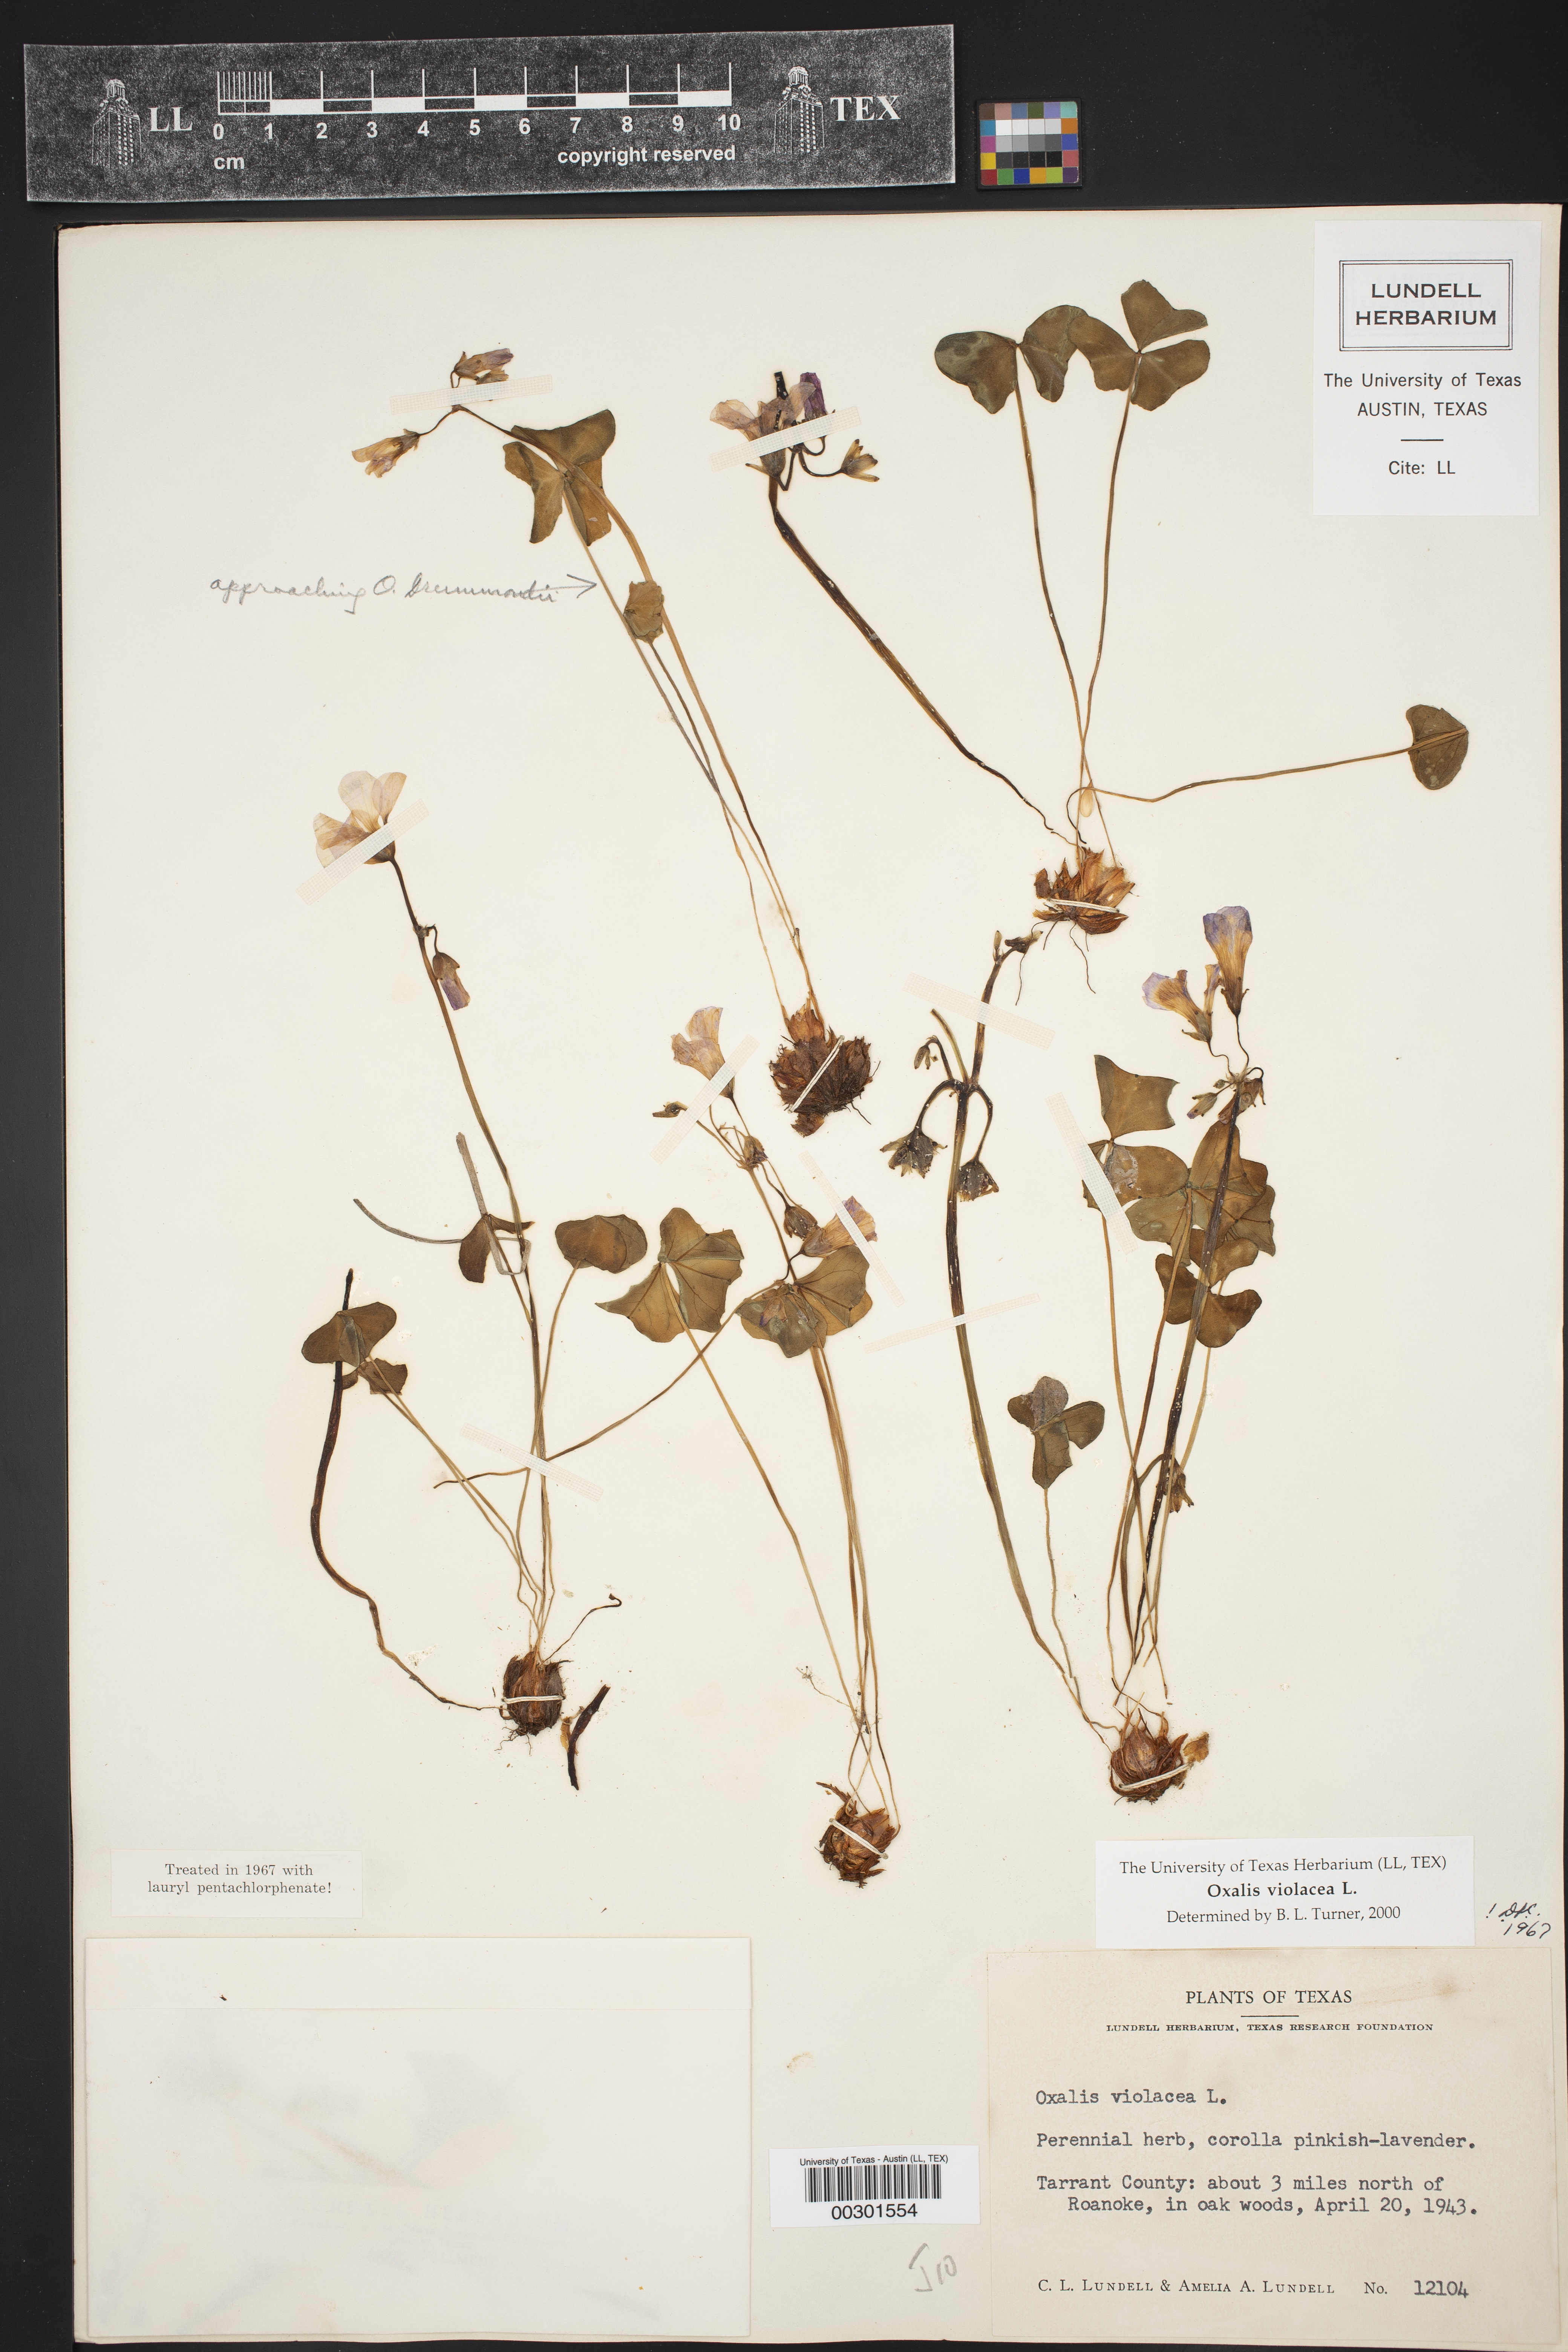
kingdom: Plantae
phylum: Tracheophyta
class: Magnoliopsida
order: Oxalidales
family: Oxalidaceae
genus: Oxalis
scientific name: Oxalis violacea
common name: Violet wood-sorrel
